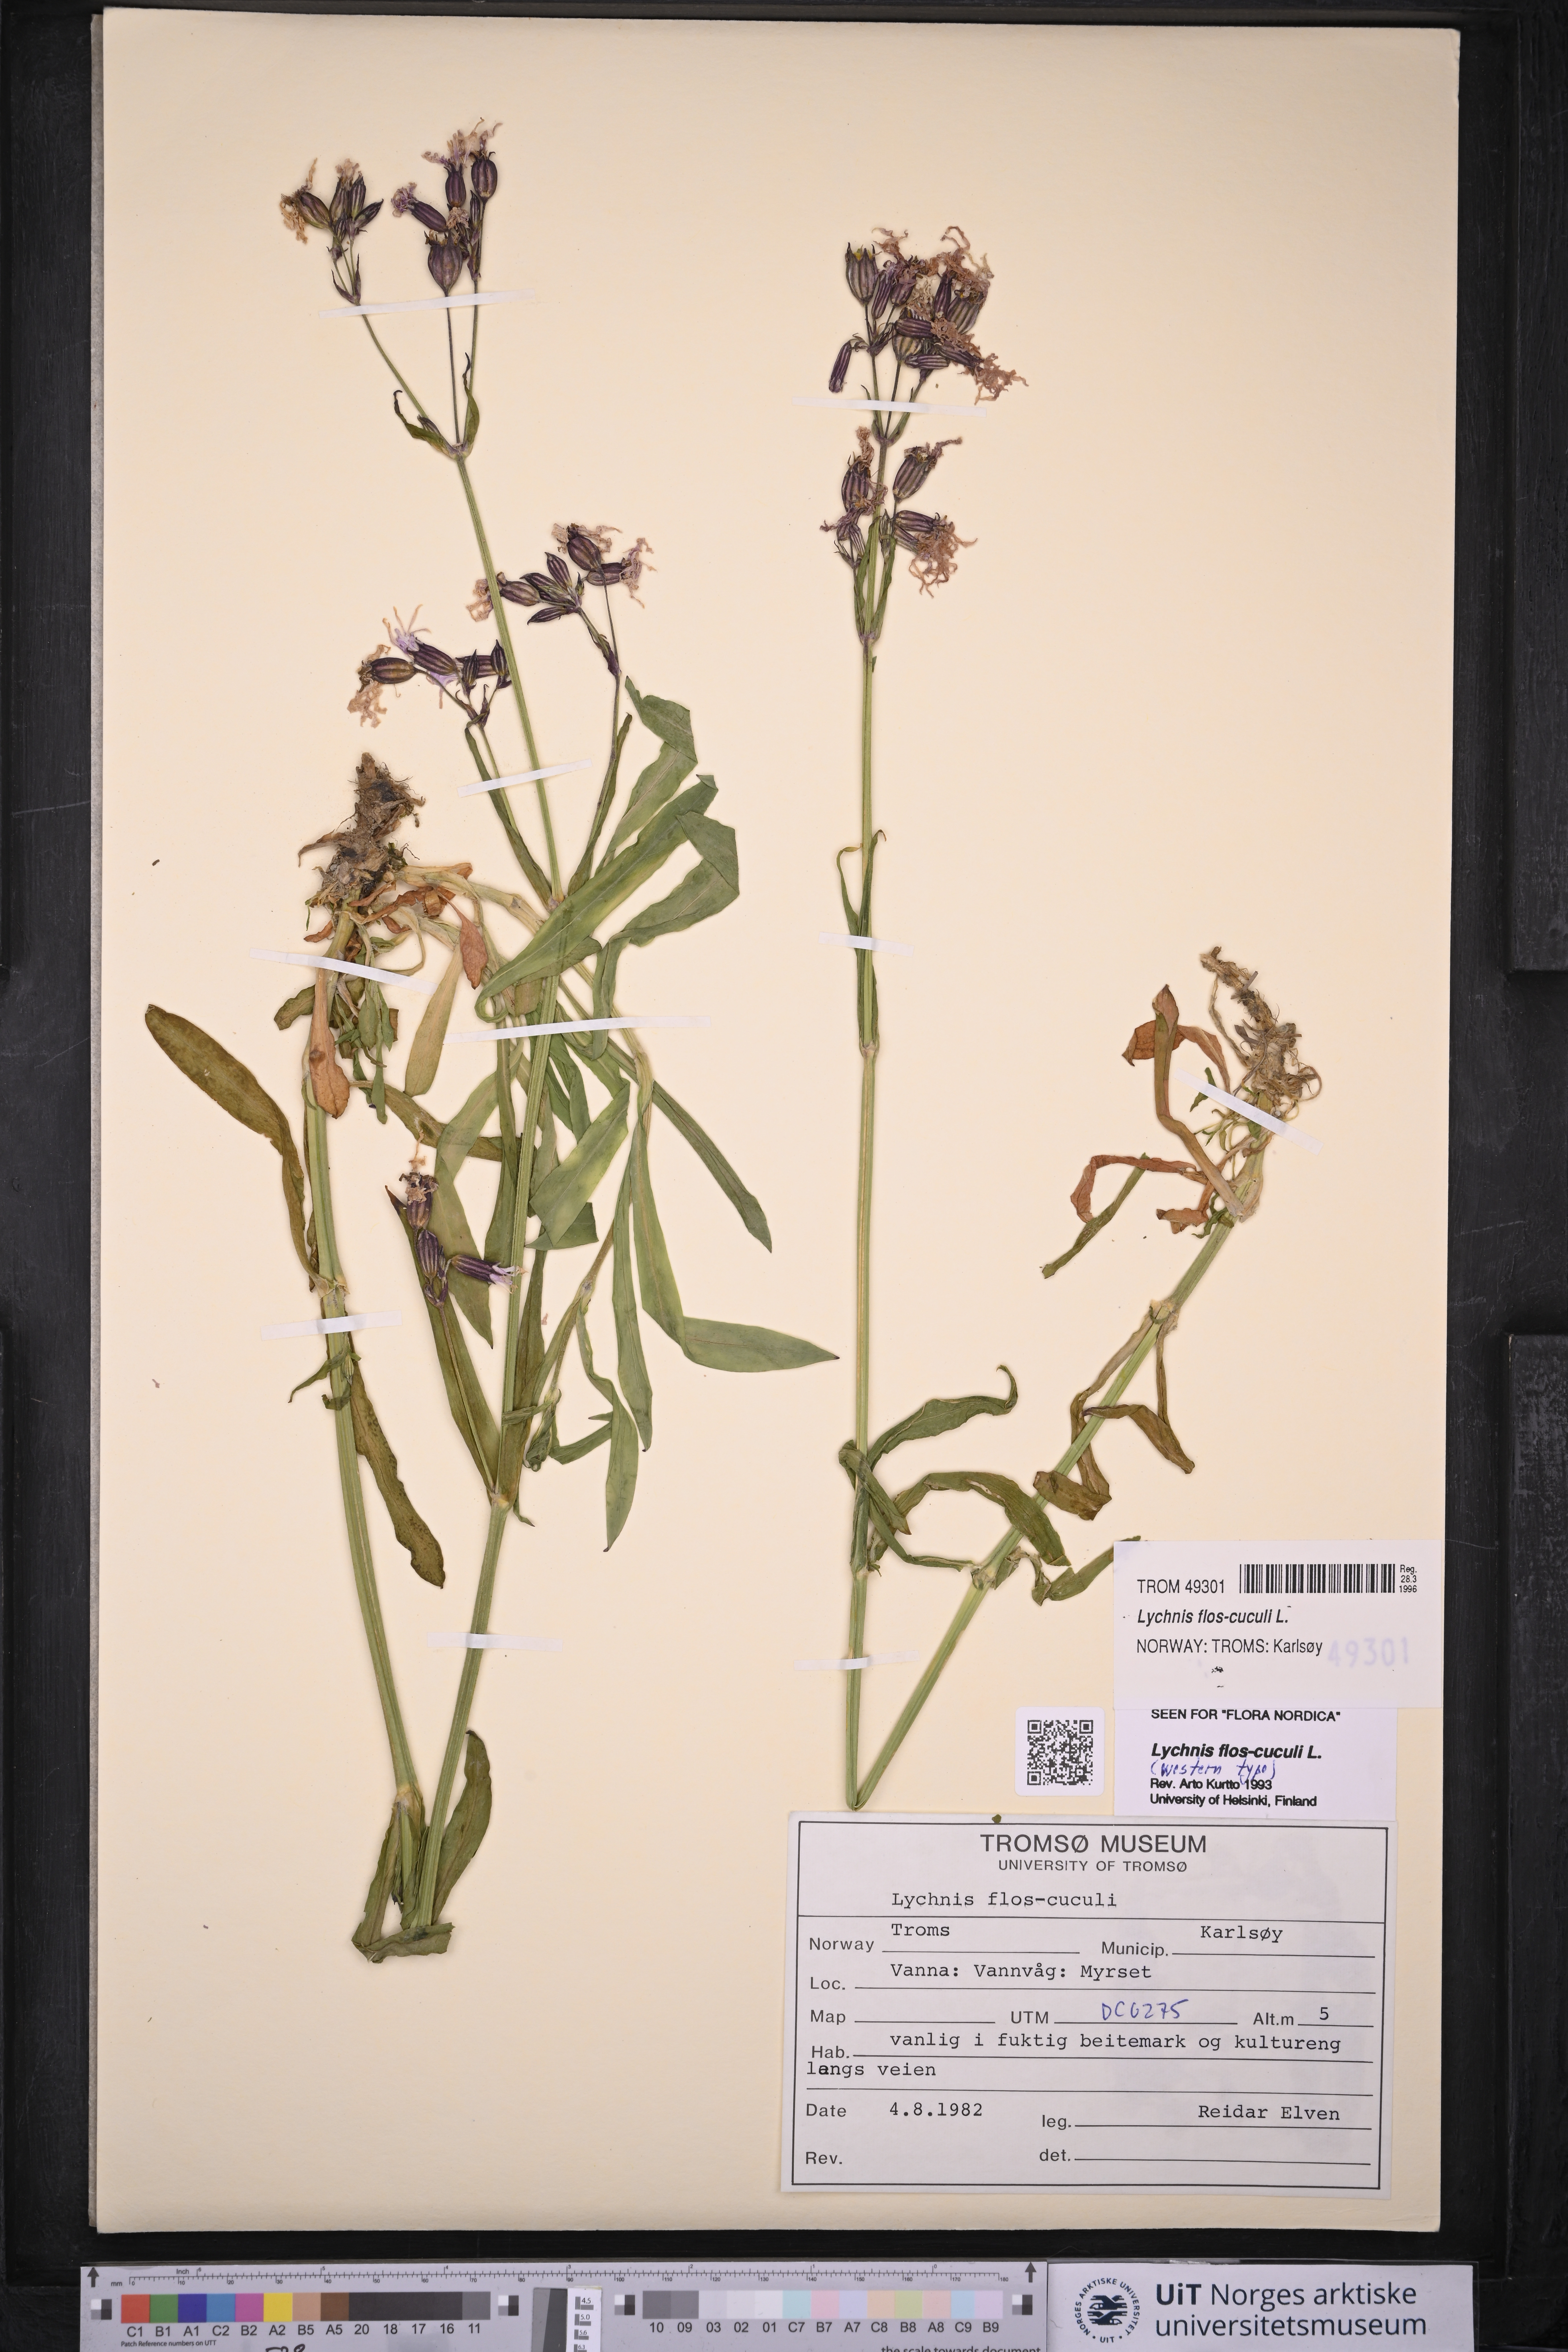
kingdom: Plantae
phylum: Tracheophyta
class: Magnoliopsida
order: Caryophyllales
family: Caryophyllaceae
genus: Silene
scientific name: Silene flos-cuculi
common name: Ragged-robin
